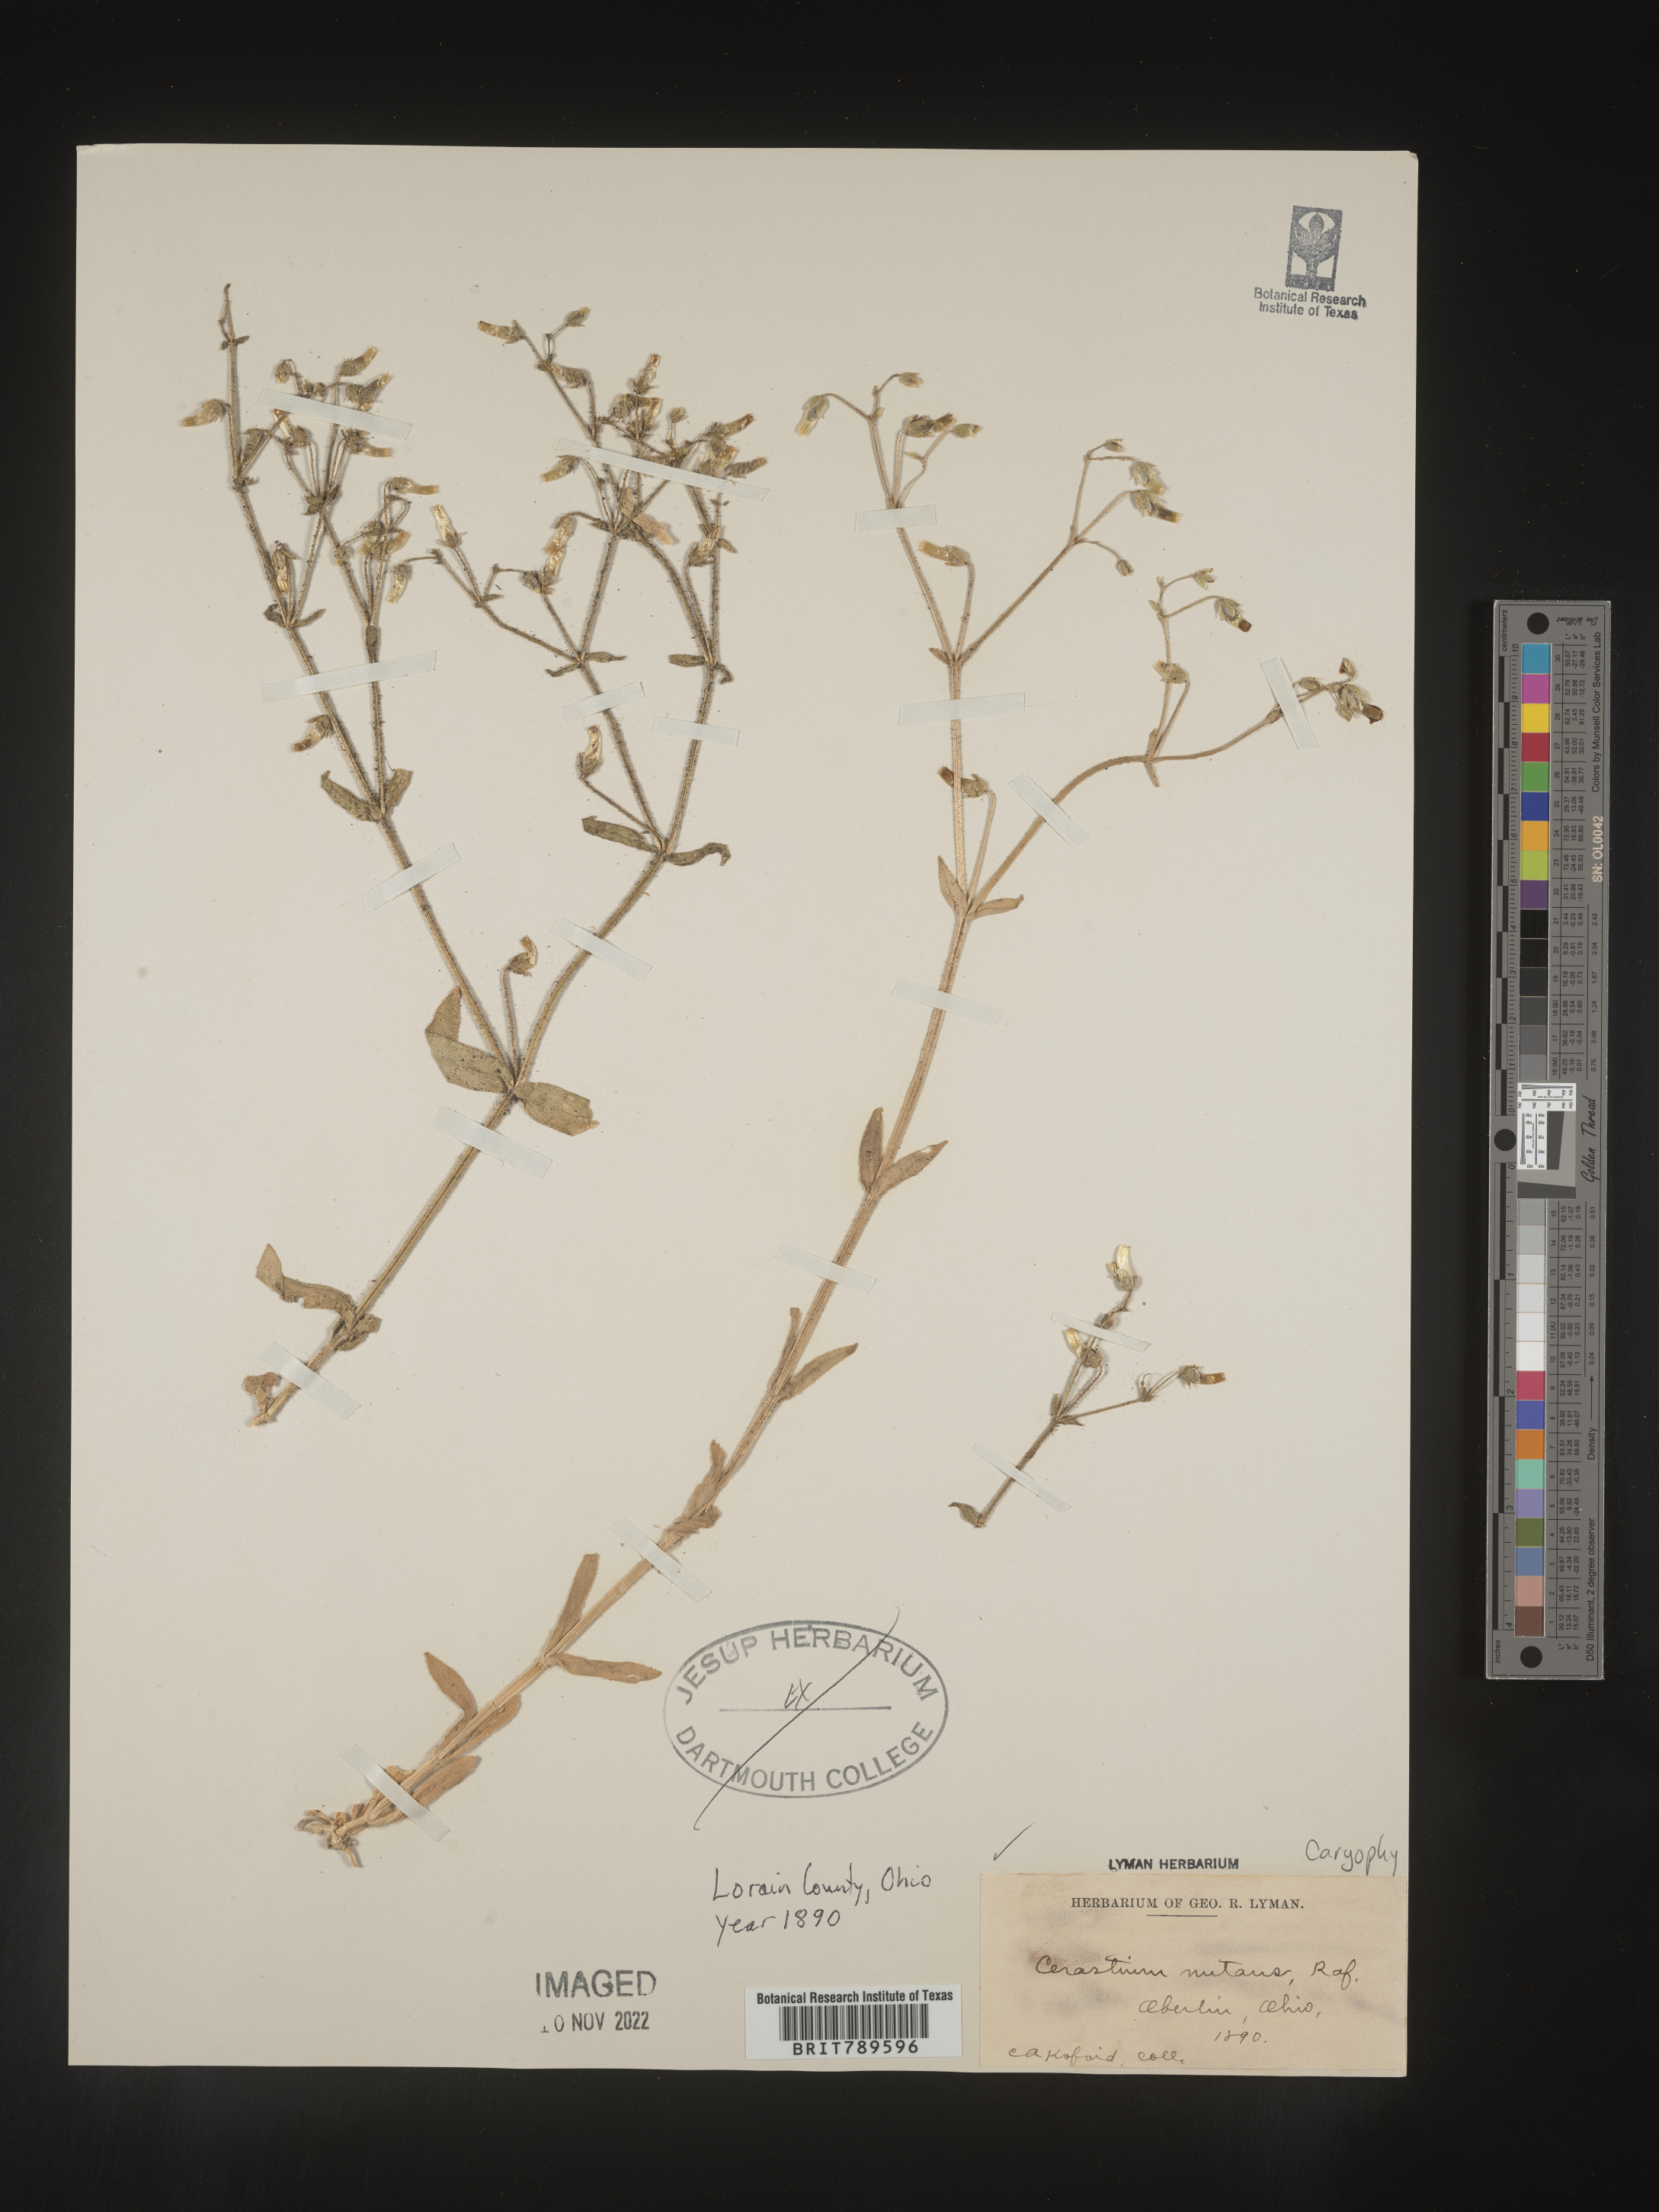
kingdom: Plantae
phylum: Tracheophyta
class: Magnoliopsida
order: Caryophyllales
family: Caryophyllaceae
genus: Cerastium
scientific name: Cerastium nutans
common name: Long-stalked chickweed
